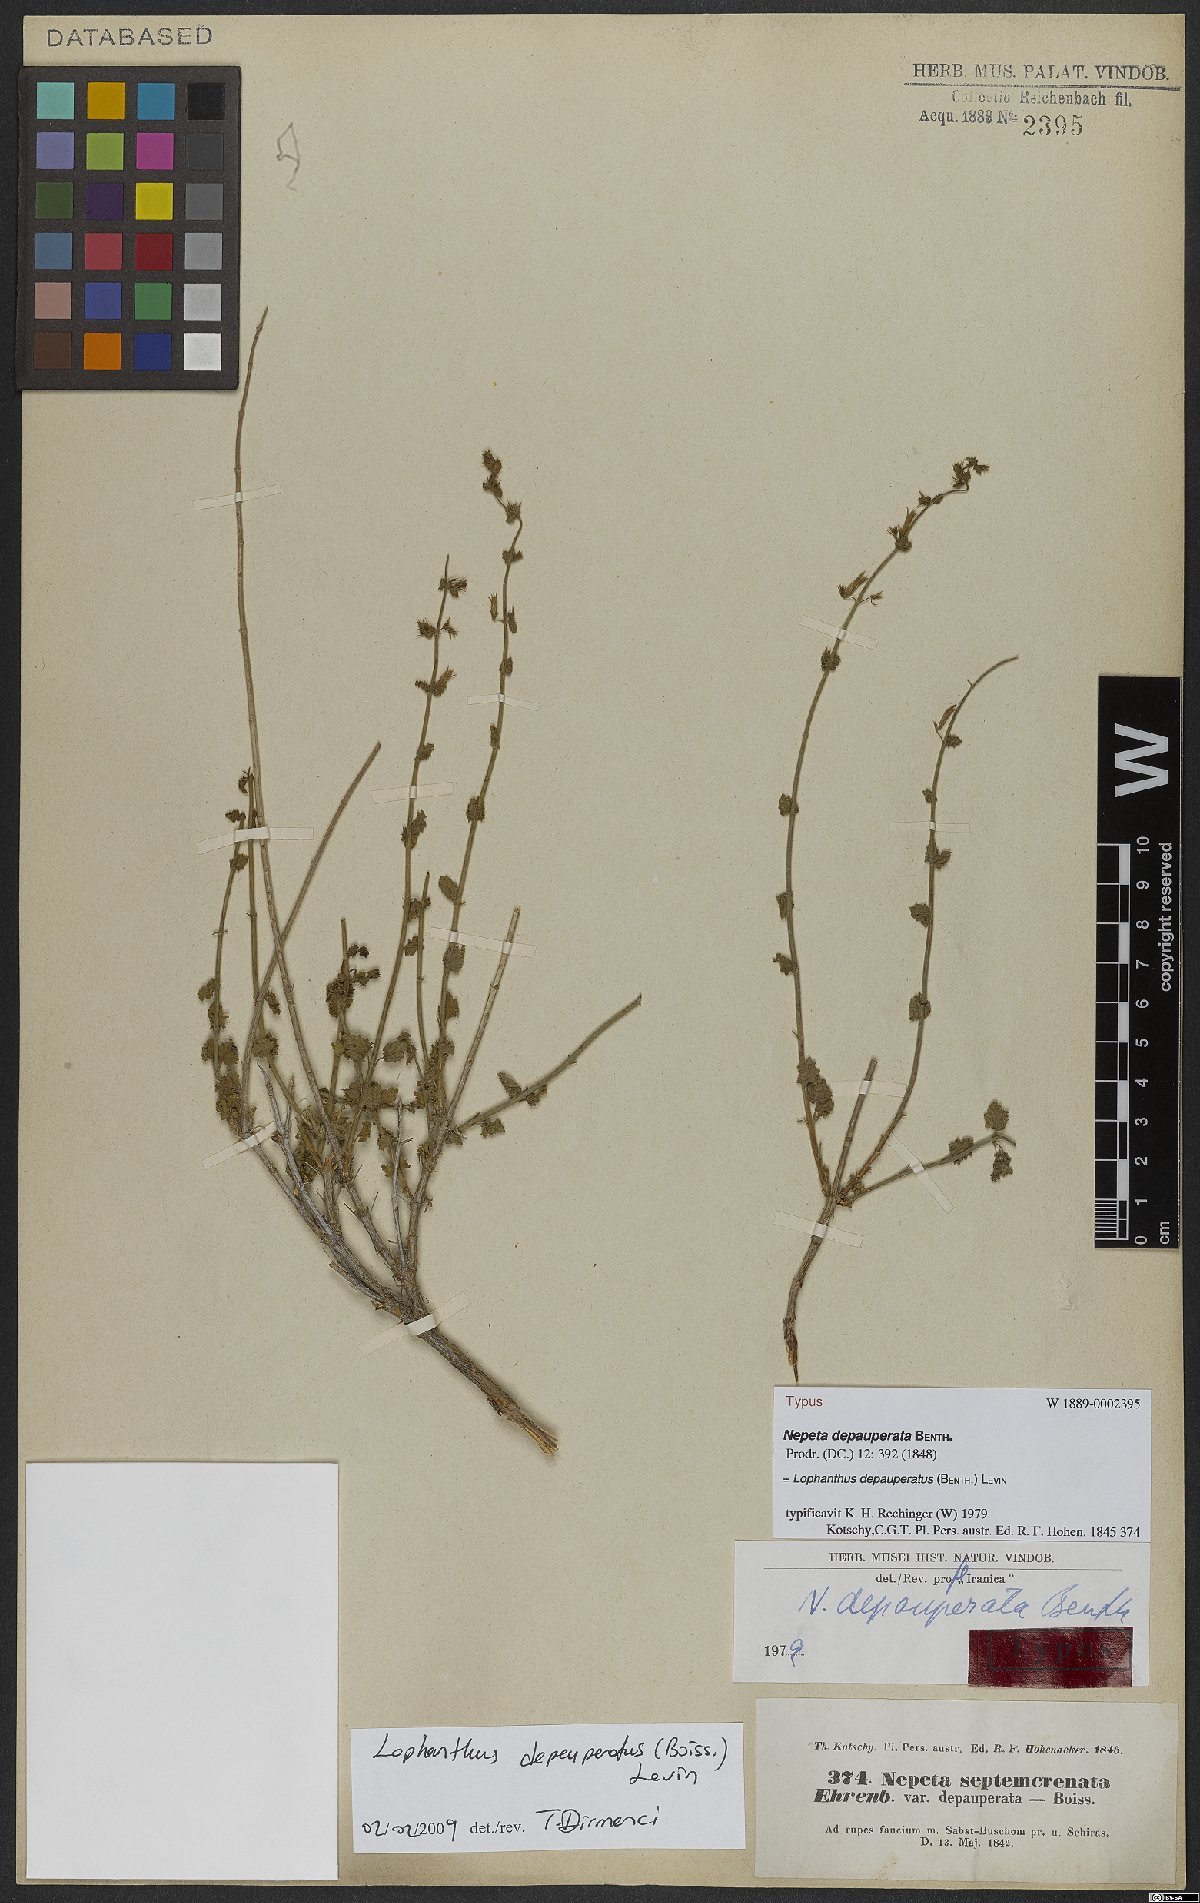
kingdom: Plantae
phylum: Tracheophyta
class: Magnoliopsida
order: Lamiales
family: Lamiaceae
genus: Nepeta
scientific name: Nepeta depauperata
